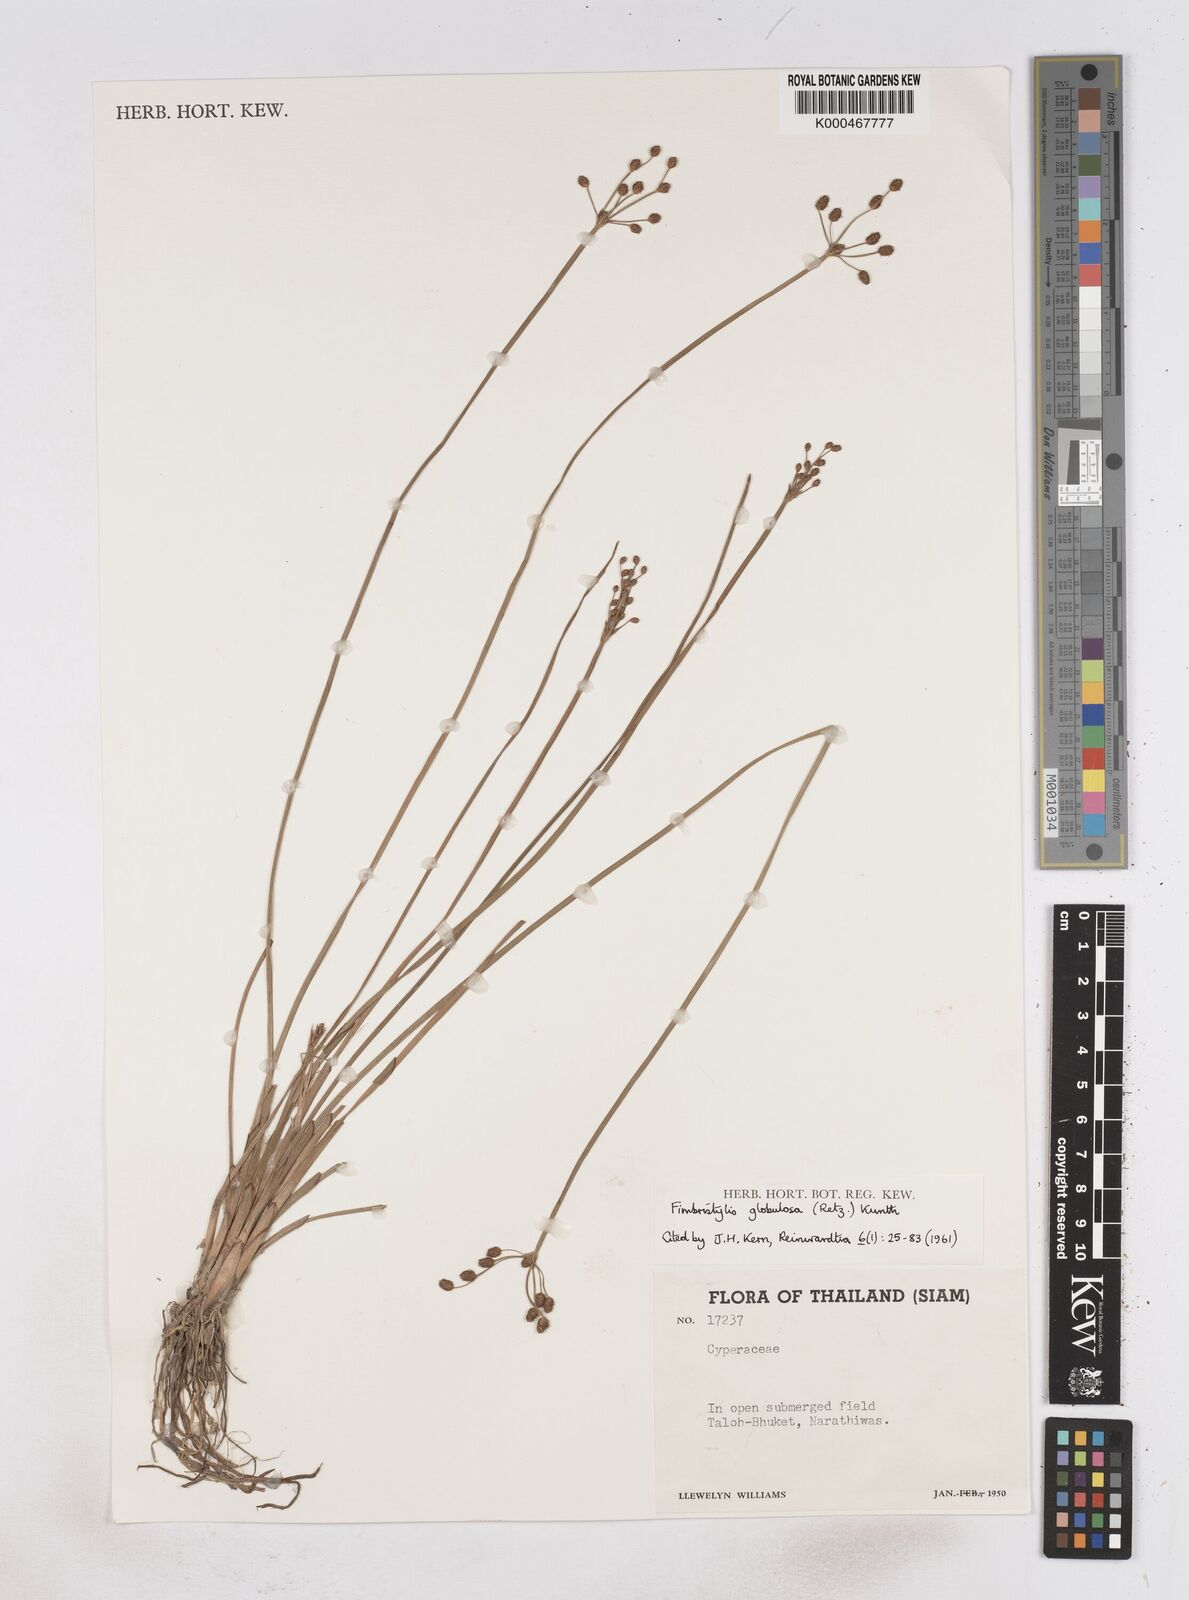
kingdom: Plantae
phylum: Tracheophyta
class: Liliopsida
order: Poales
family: Cyperaceae
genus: Fimbristylis
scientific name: Fimbristylis umbellaris
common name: Globular fimbristylis
